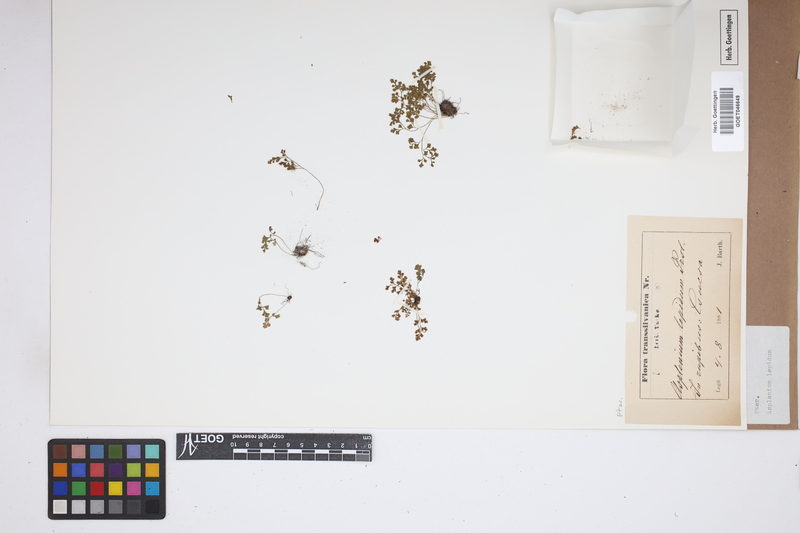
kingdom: Plantae
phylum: Tracheophyta
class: Polypodiopsida
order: Polypodiales
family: Aspleniaceae
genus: Asplenium
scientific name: Asplenium lepidum
